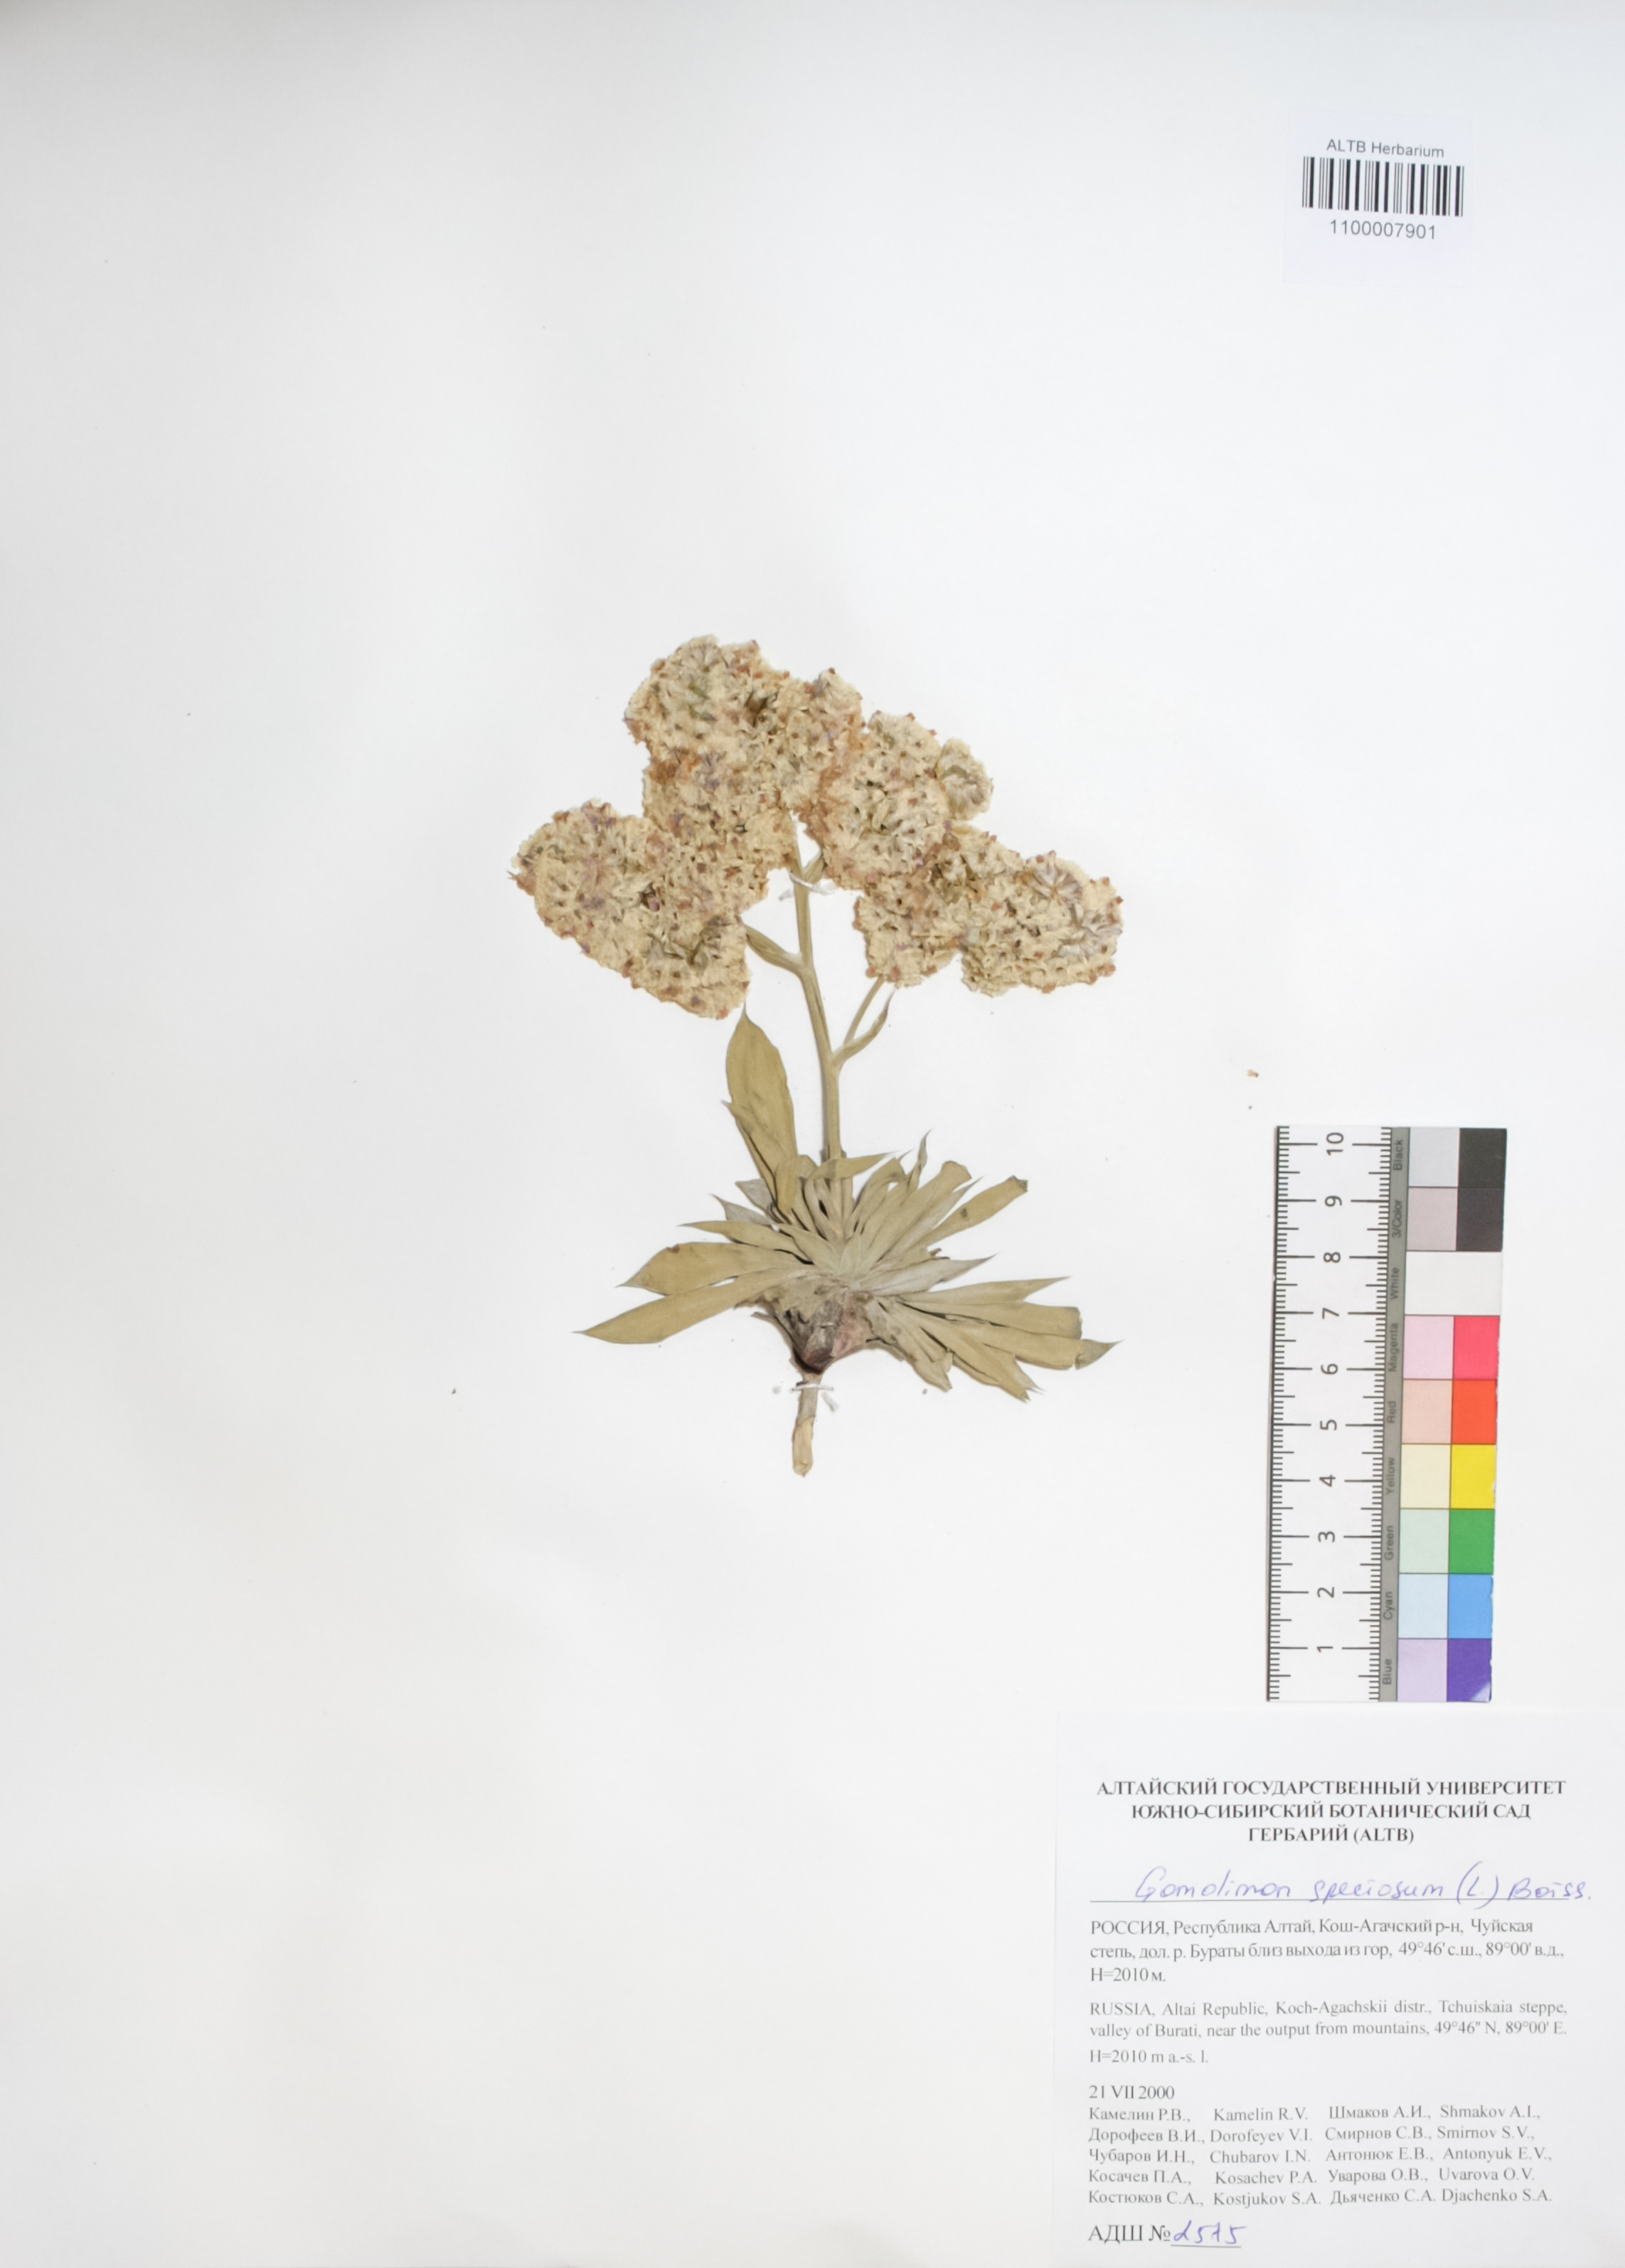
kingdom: Plantae
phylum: Tracheophyta
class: Magnoliopsida
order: Caryophyllales
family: Plumbaginaceae
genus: Goniolimon
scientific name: Goniolimon speciosum
